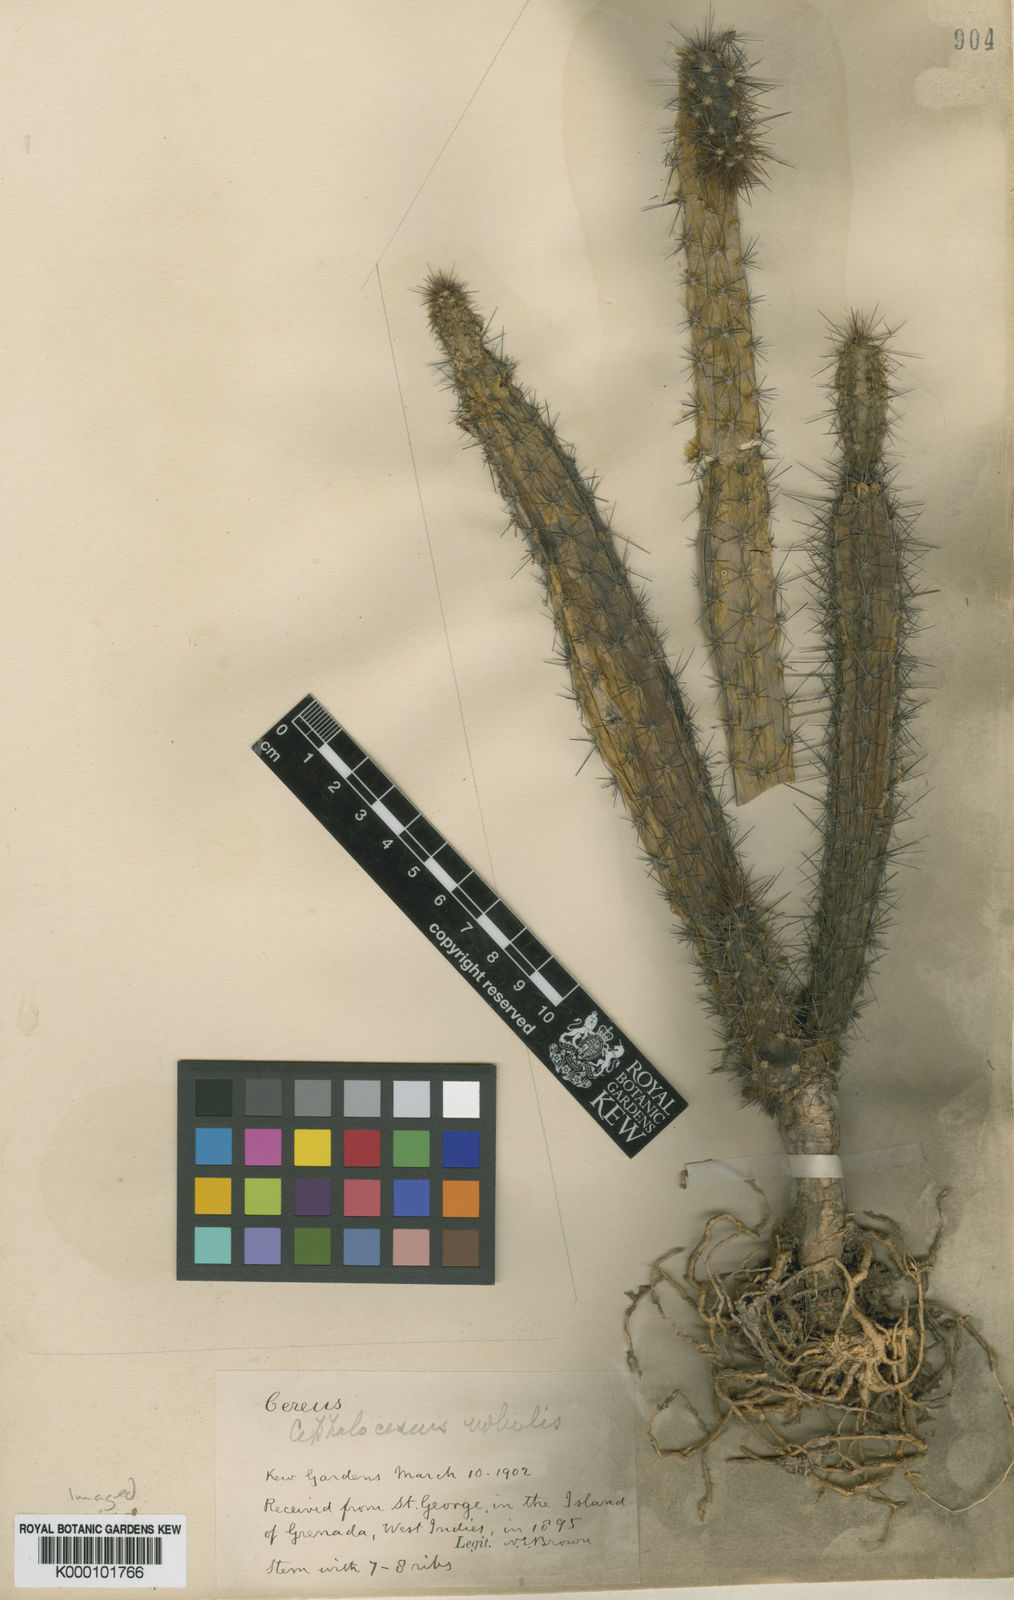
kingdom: Plantae
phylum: Tracheophyta
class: Magnoliopsida
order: Caryophyllales
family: Cactaceae
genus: Pilosocereus
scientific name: Pilosocereus polygonus
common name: Key tree cactus
